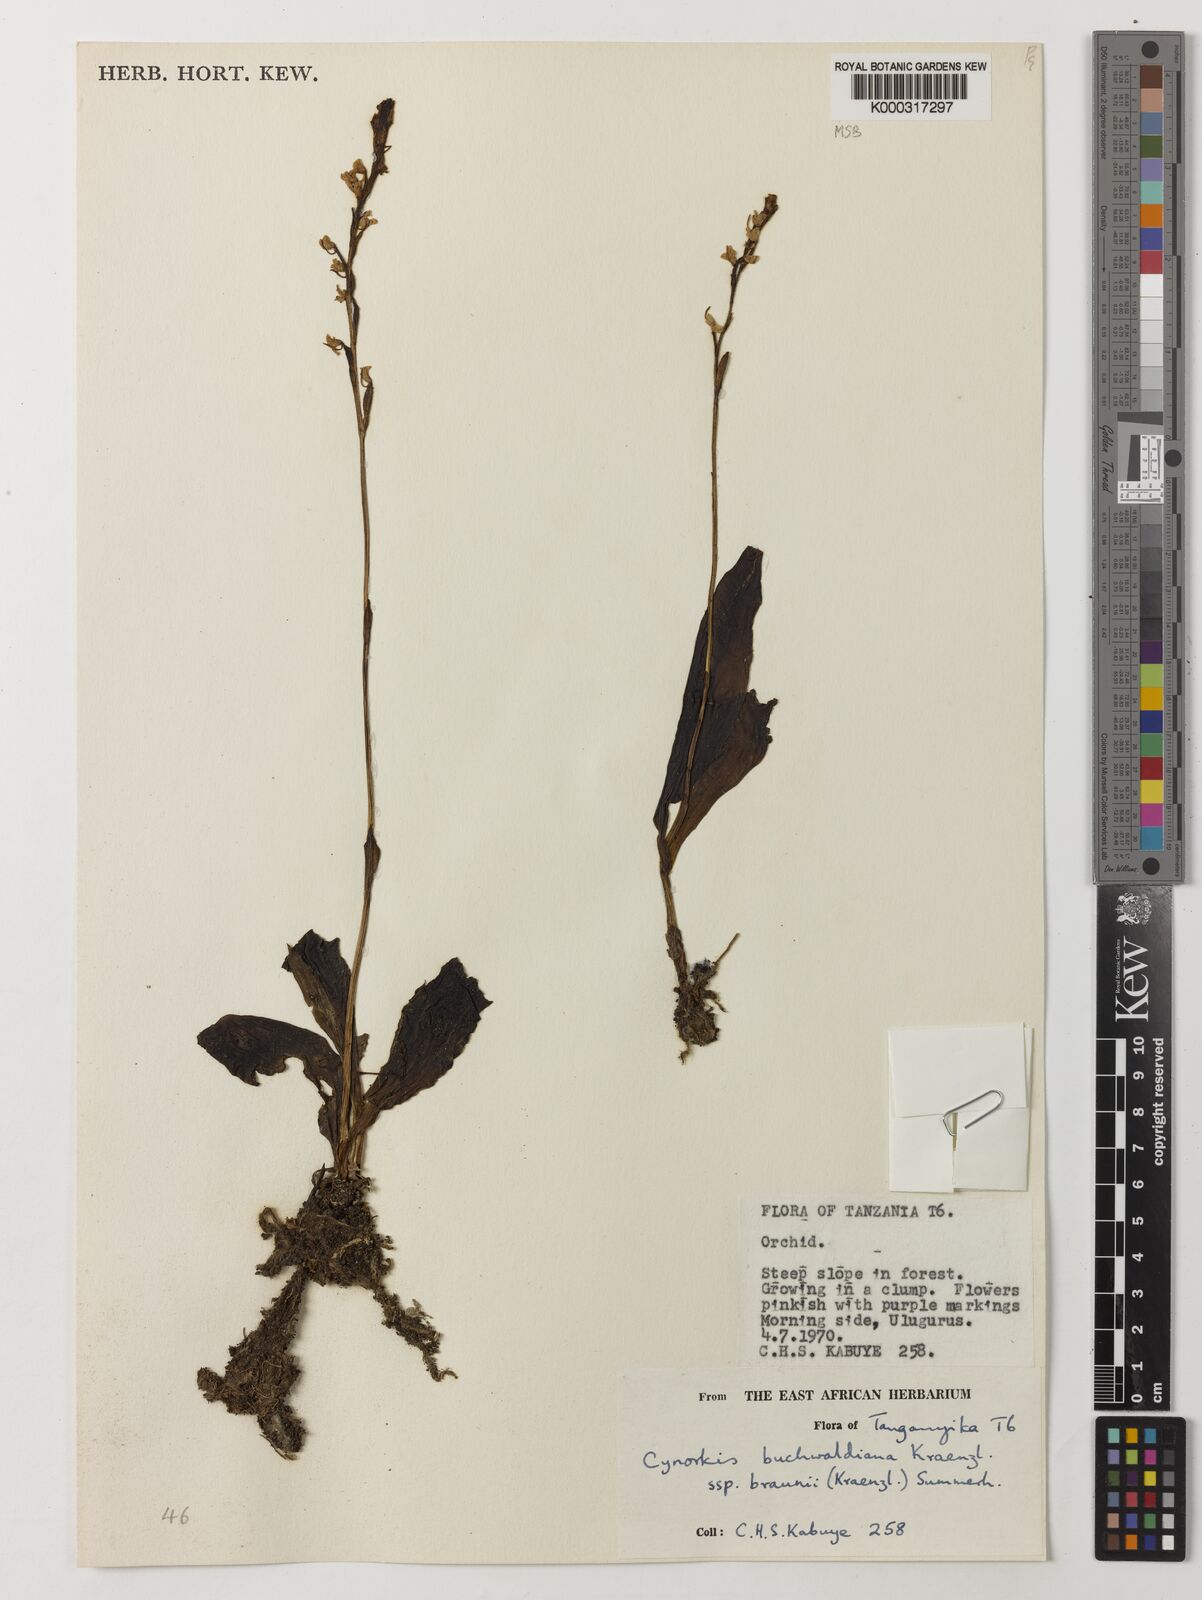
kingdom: Plantae
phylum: Tracheophyta
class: Liliopsida
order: Asparagales
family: Orchidaceae
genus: Cynorkis
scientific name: Cynorkis buchwaldiana
